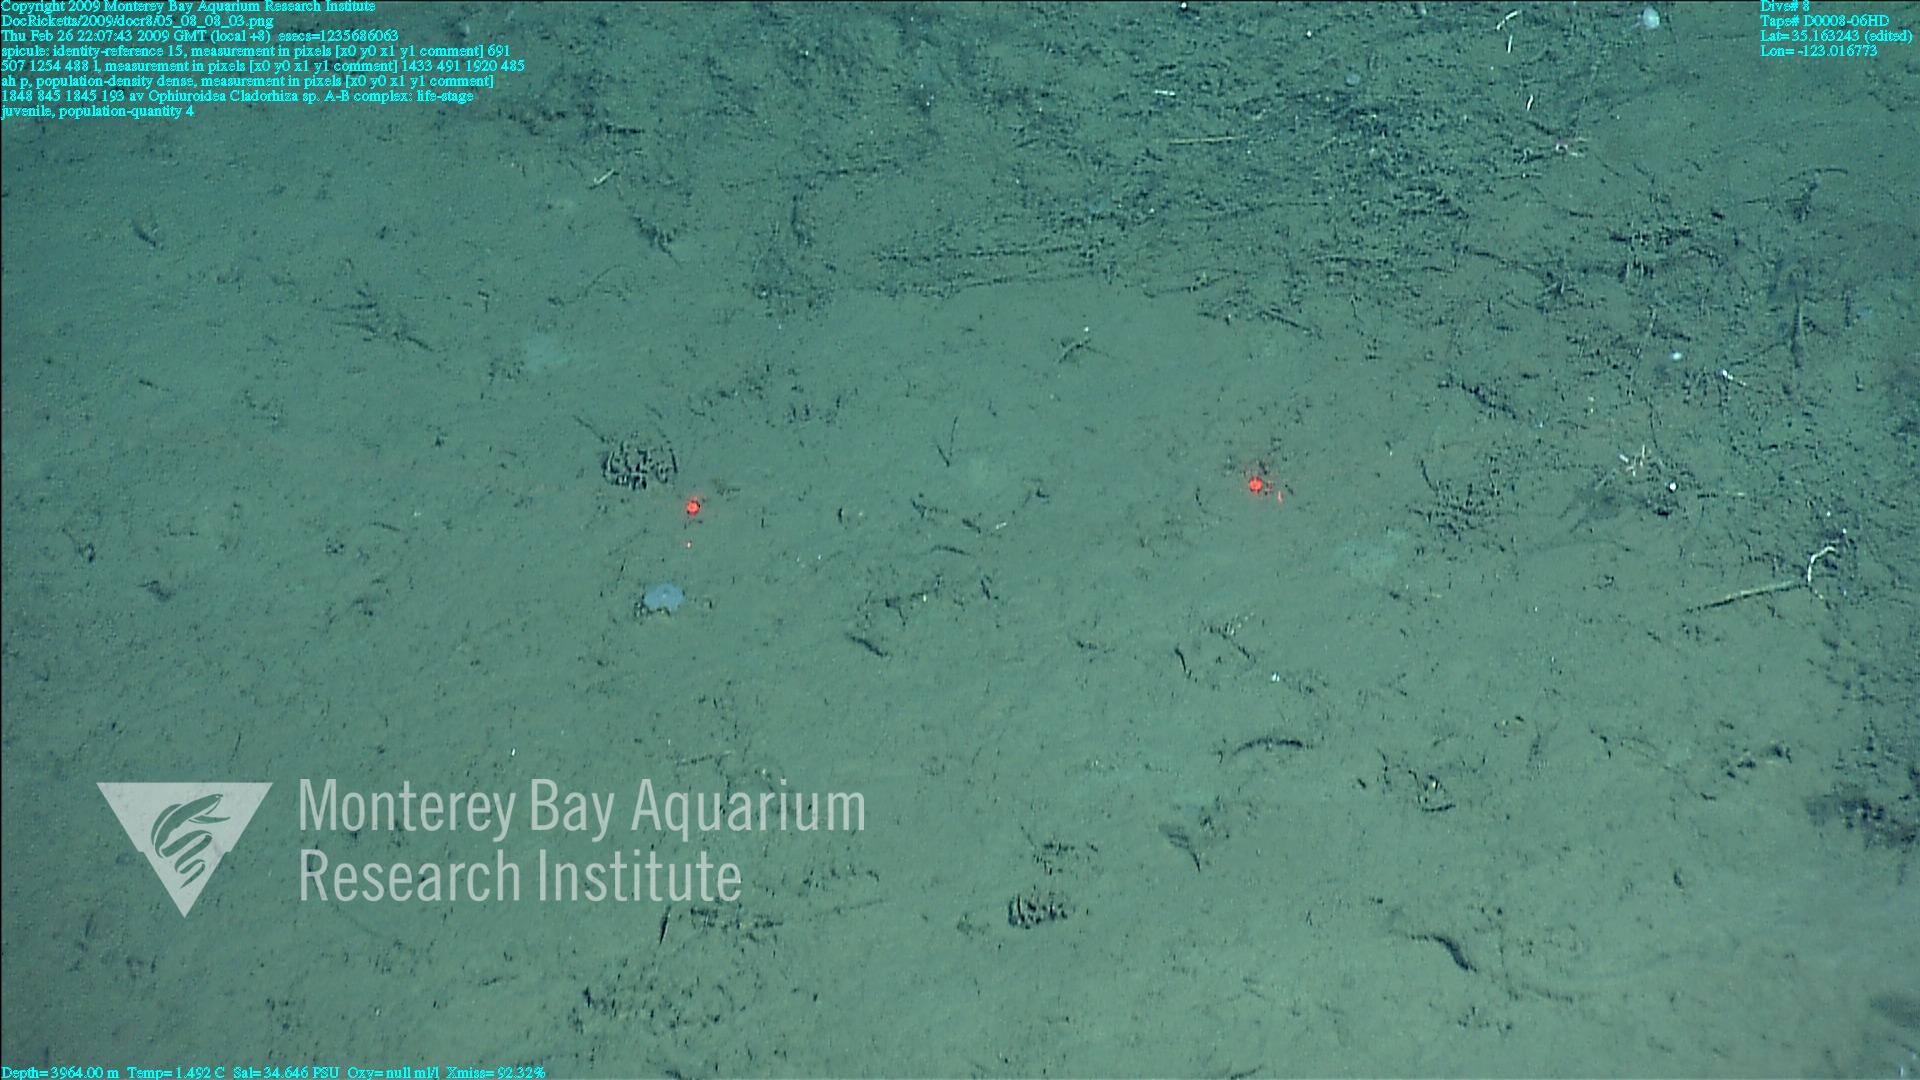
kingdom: Animalia
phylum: Porifera
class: Demospongiae
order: Poecilosclerida
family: Cladorhizidae
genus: Cladorhiza
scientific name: Cladorhiza
